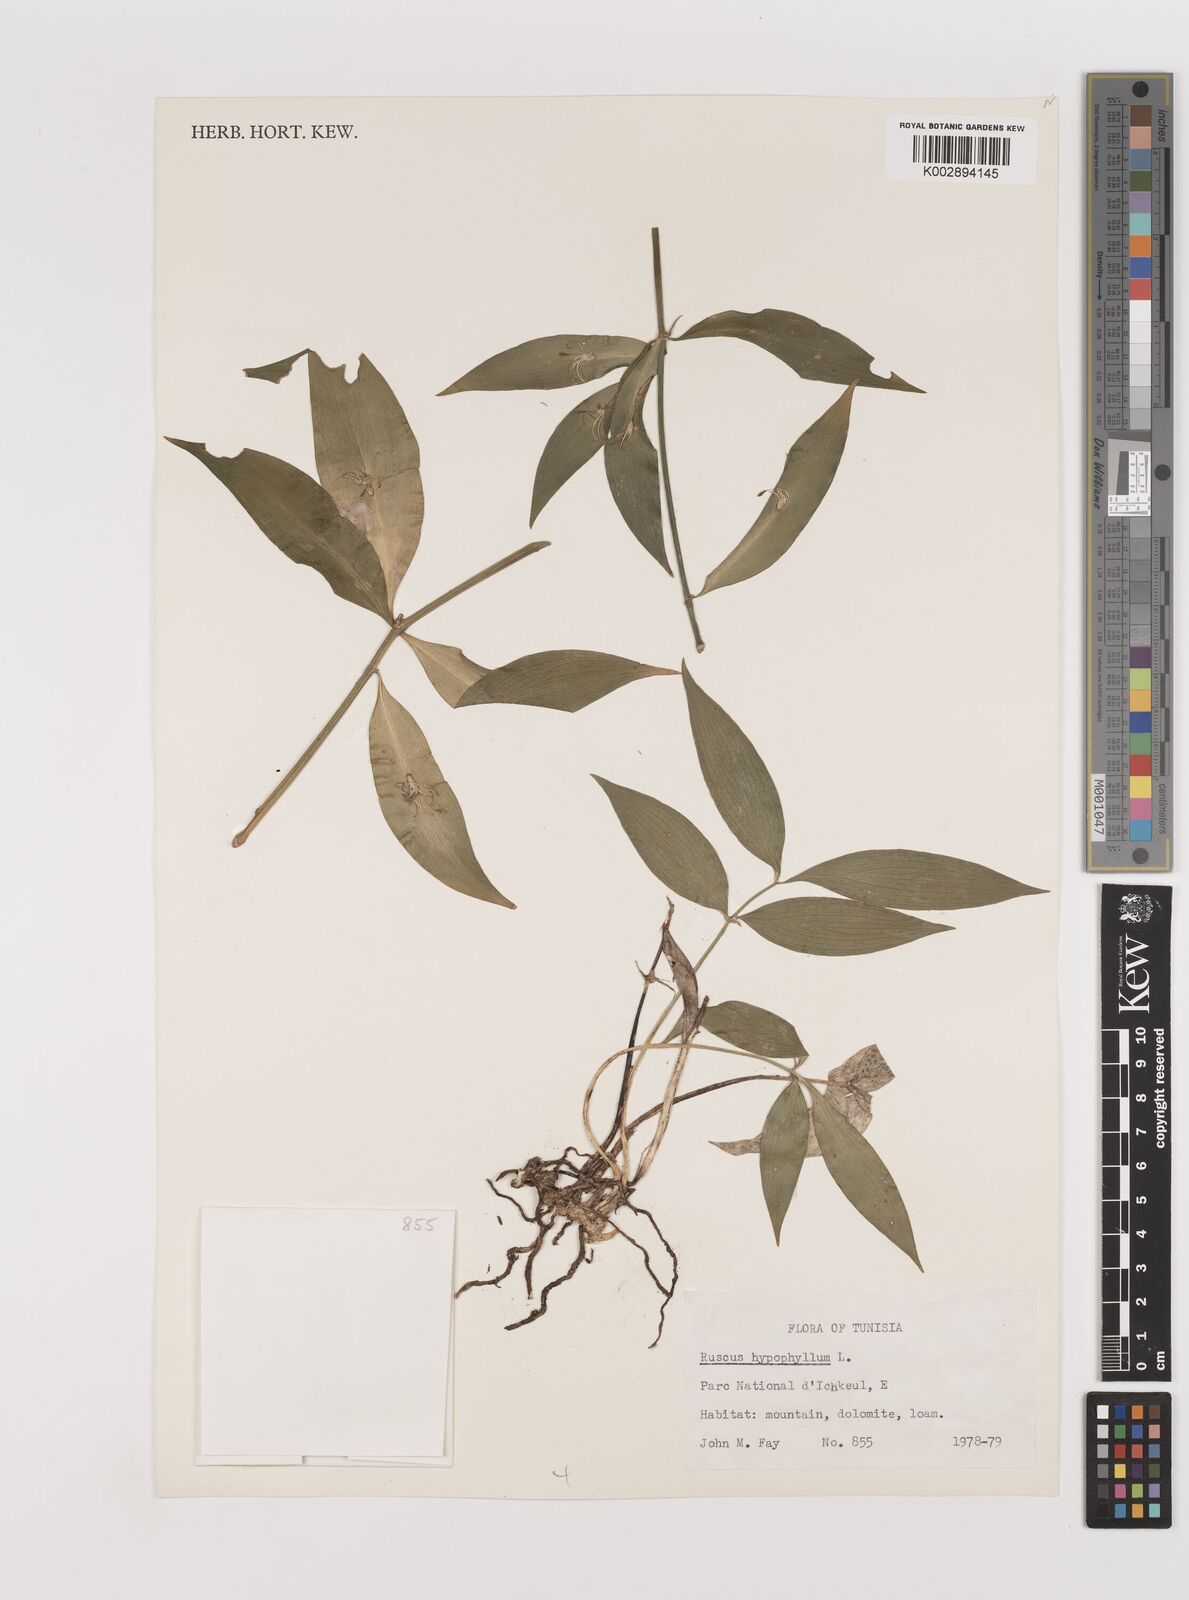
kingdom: Plantae
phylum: Tracheophyta
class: Liliopsida
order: Asparagales
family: Asparagaceae
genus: Ruscus
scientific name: Ruscus hypophyllum
